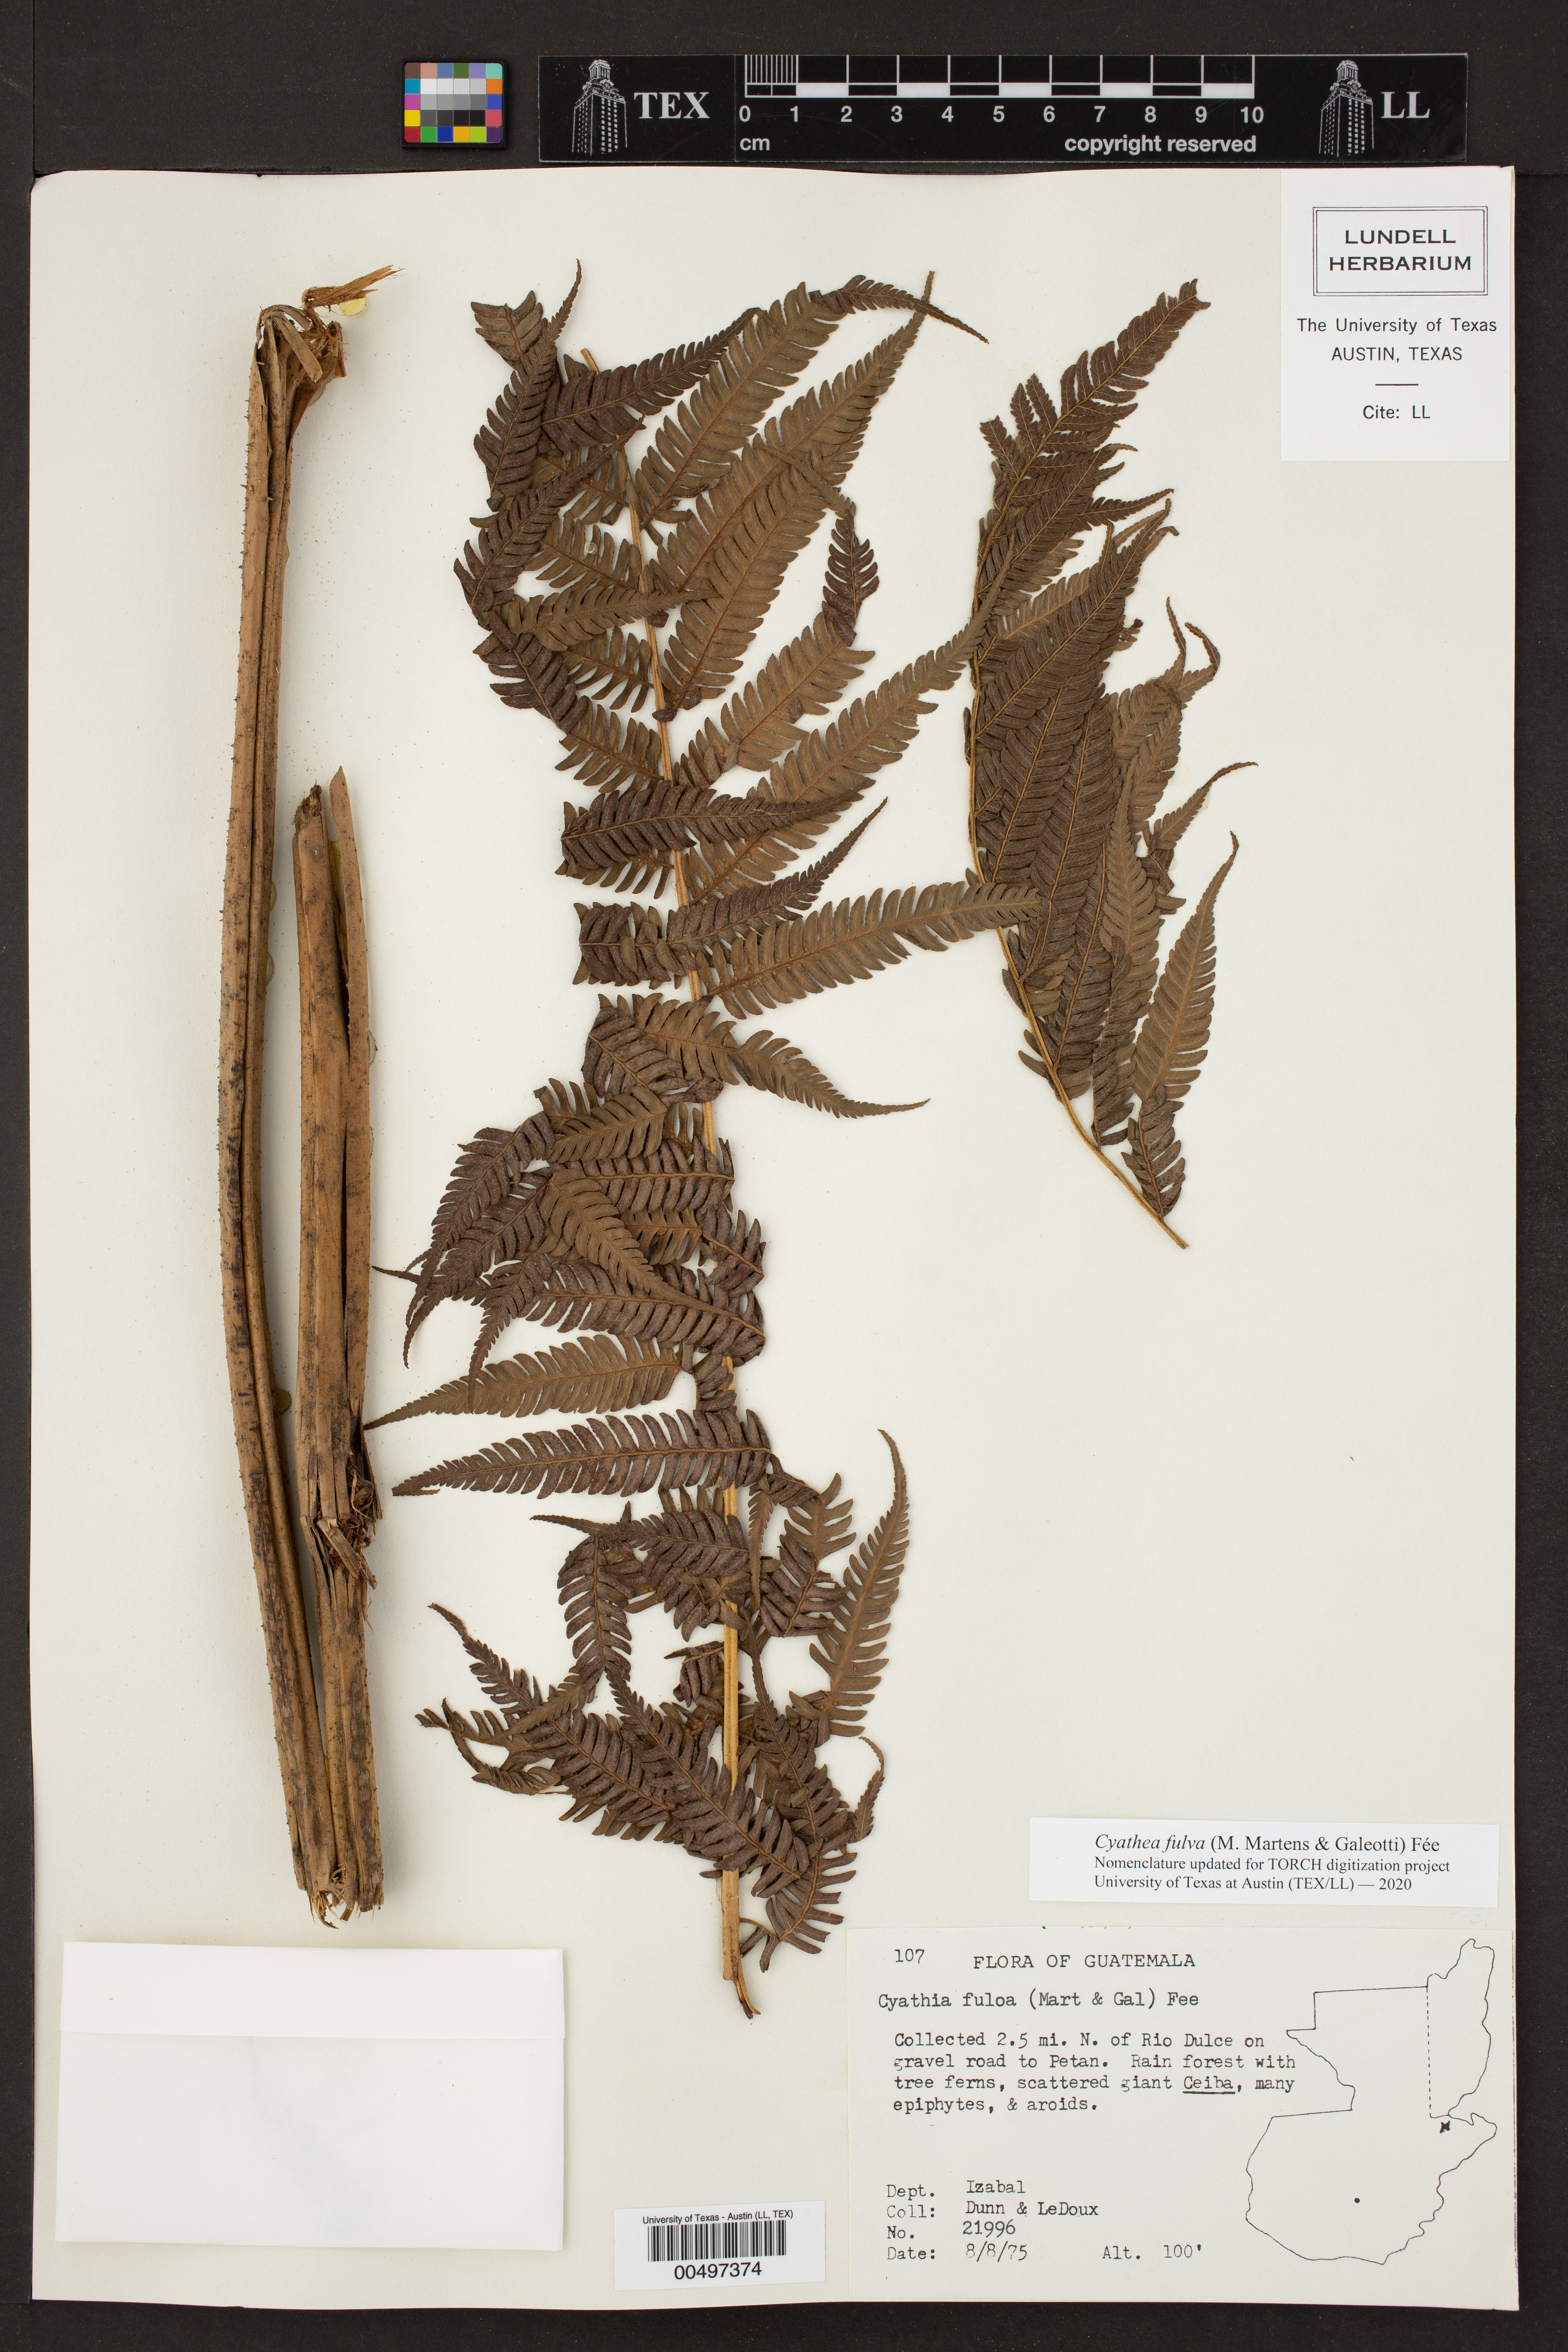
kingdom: Plantae
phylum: Tracheophyta
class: Polypodiopsida
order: Cyatheales
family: Cyatheaceae
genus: Cyathea
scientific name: Cyathea fulva
